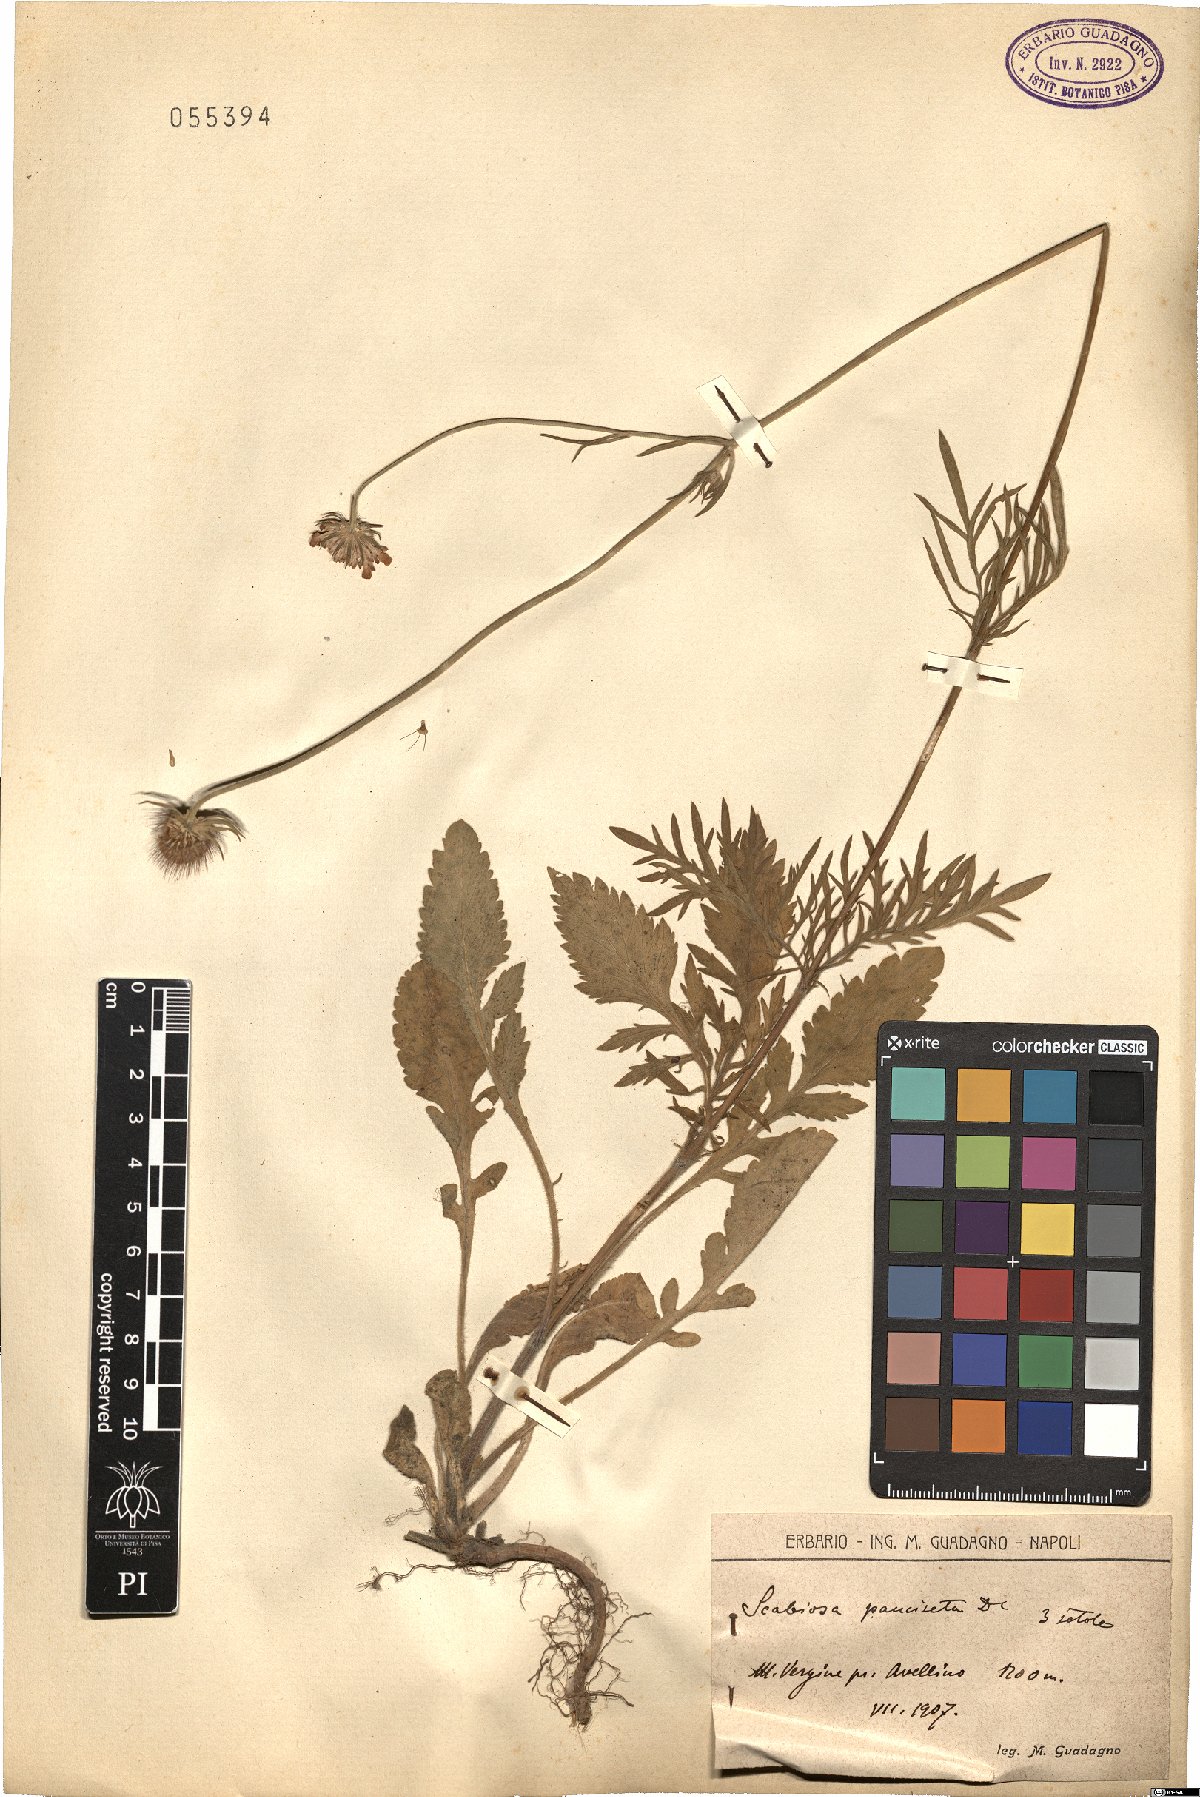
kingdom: Plantae
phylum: Tracheophyta
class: Magnoliopsida
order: Dipsacales
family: Caprifoliaceae
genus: Scabiosa
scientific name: Scabiosa cinerea
